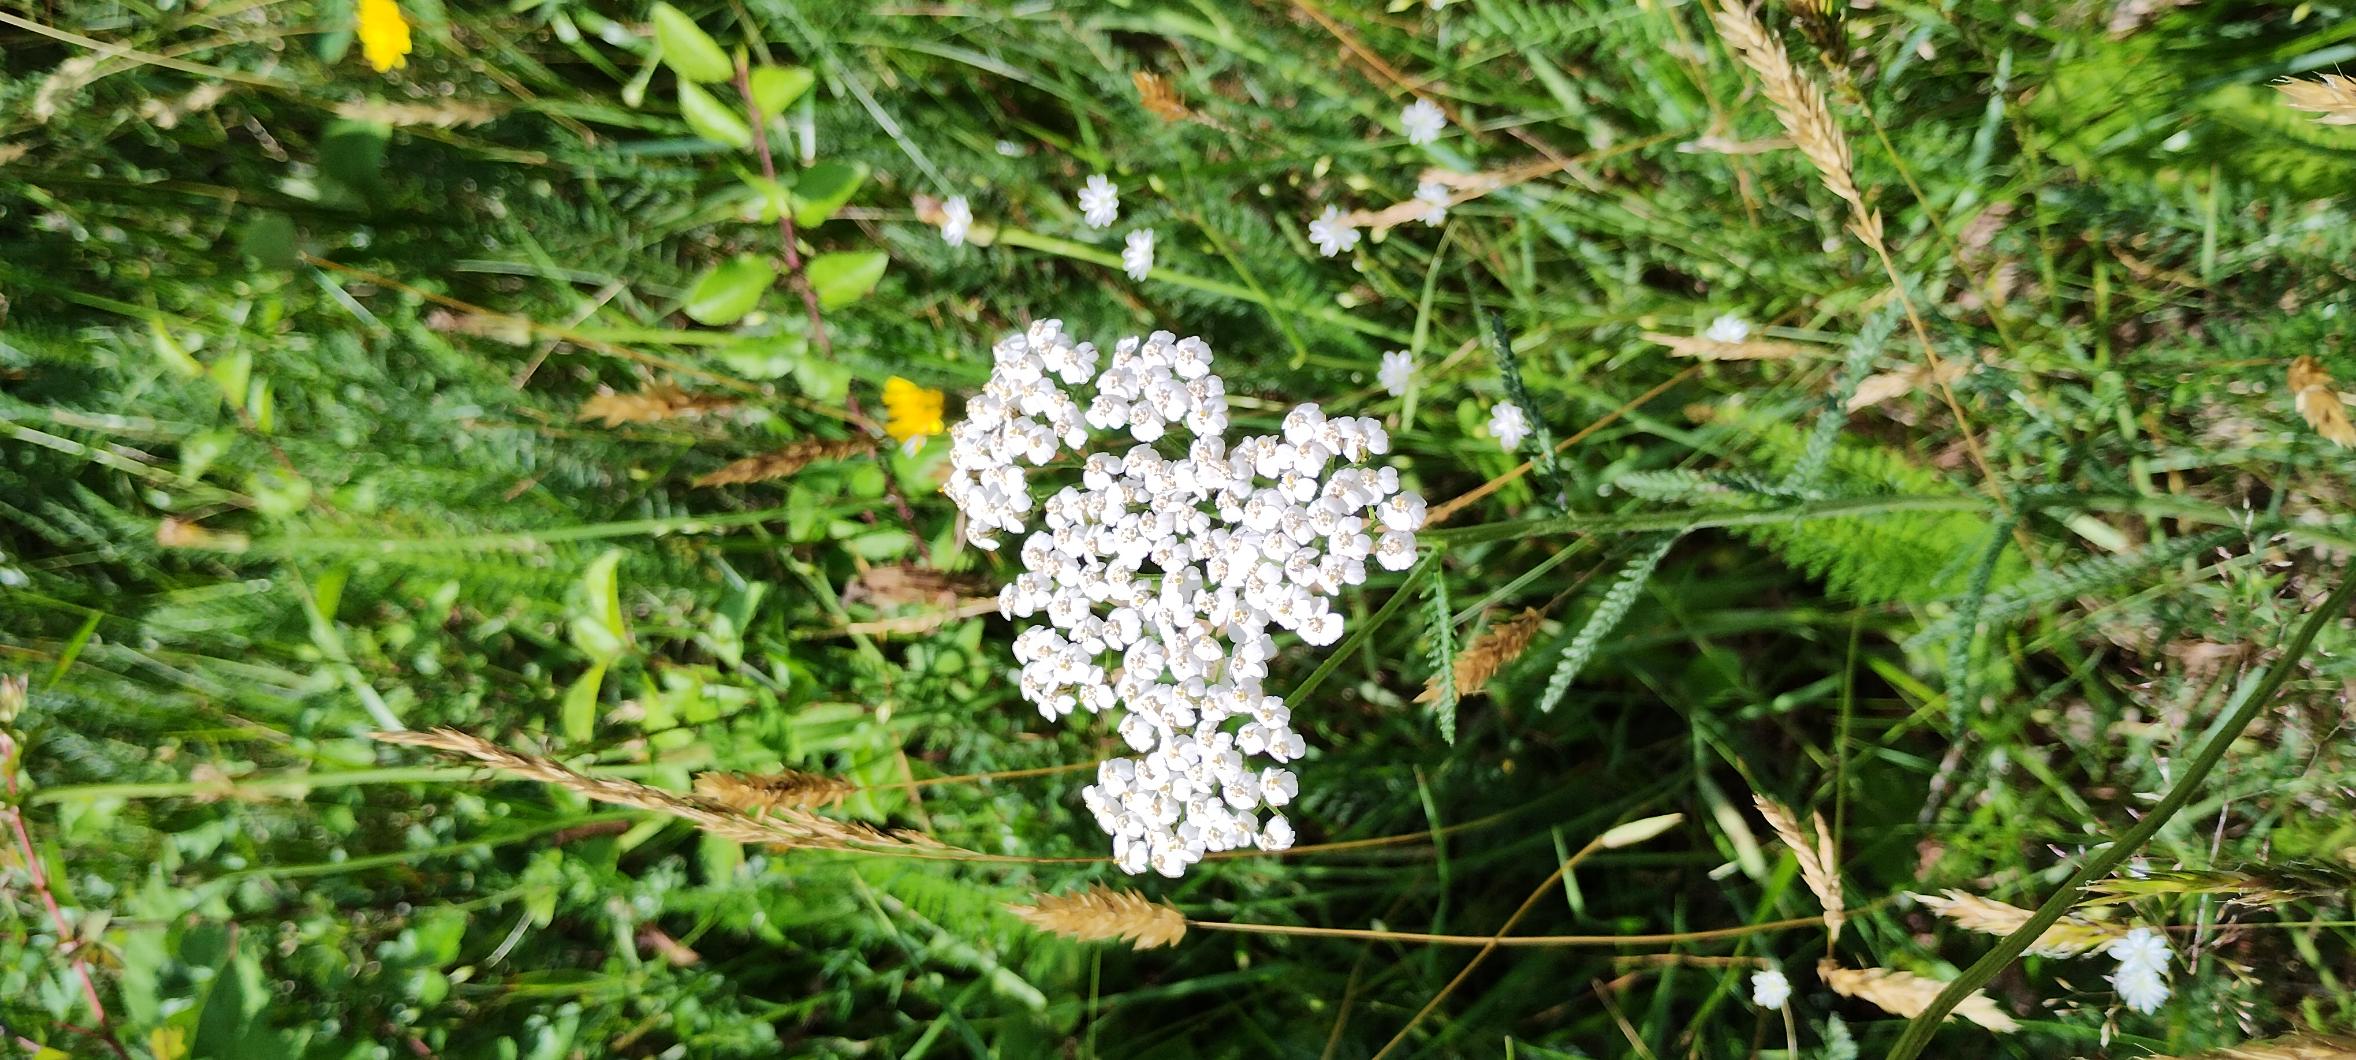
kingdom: Plantae
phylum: Tracheophyta
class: Magnoliopsida
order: Asterales
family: Asteraceae
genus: Achillea
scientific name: Achillea millefolium
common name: Almindelig røllike
